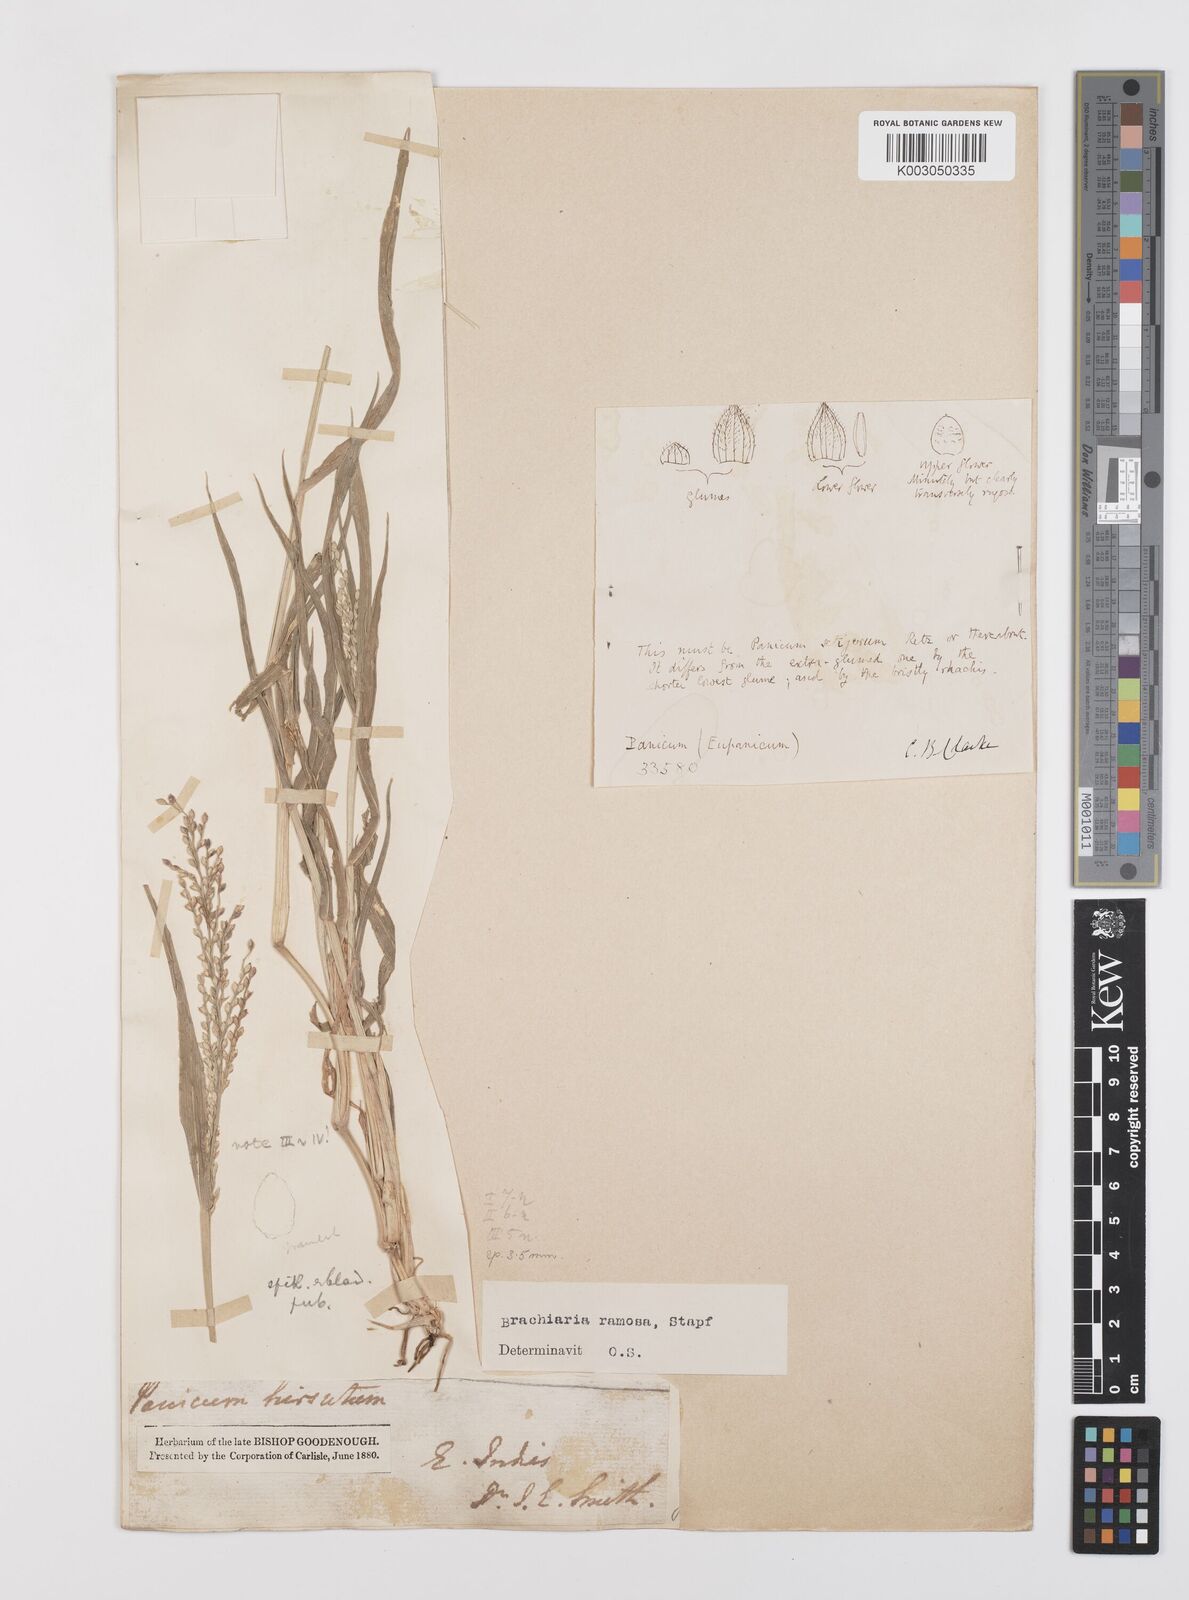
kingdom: Plantae
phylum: Tracheophyta
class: Liliopsida
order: Poales
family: Poaceae
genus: Urochloa
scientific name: Urochloa ramosa
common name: Browntop millet
